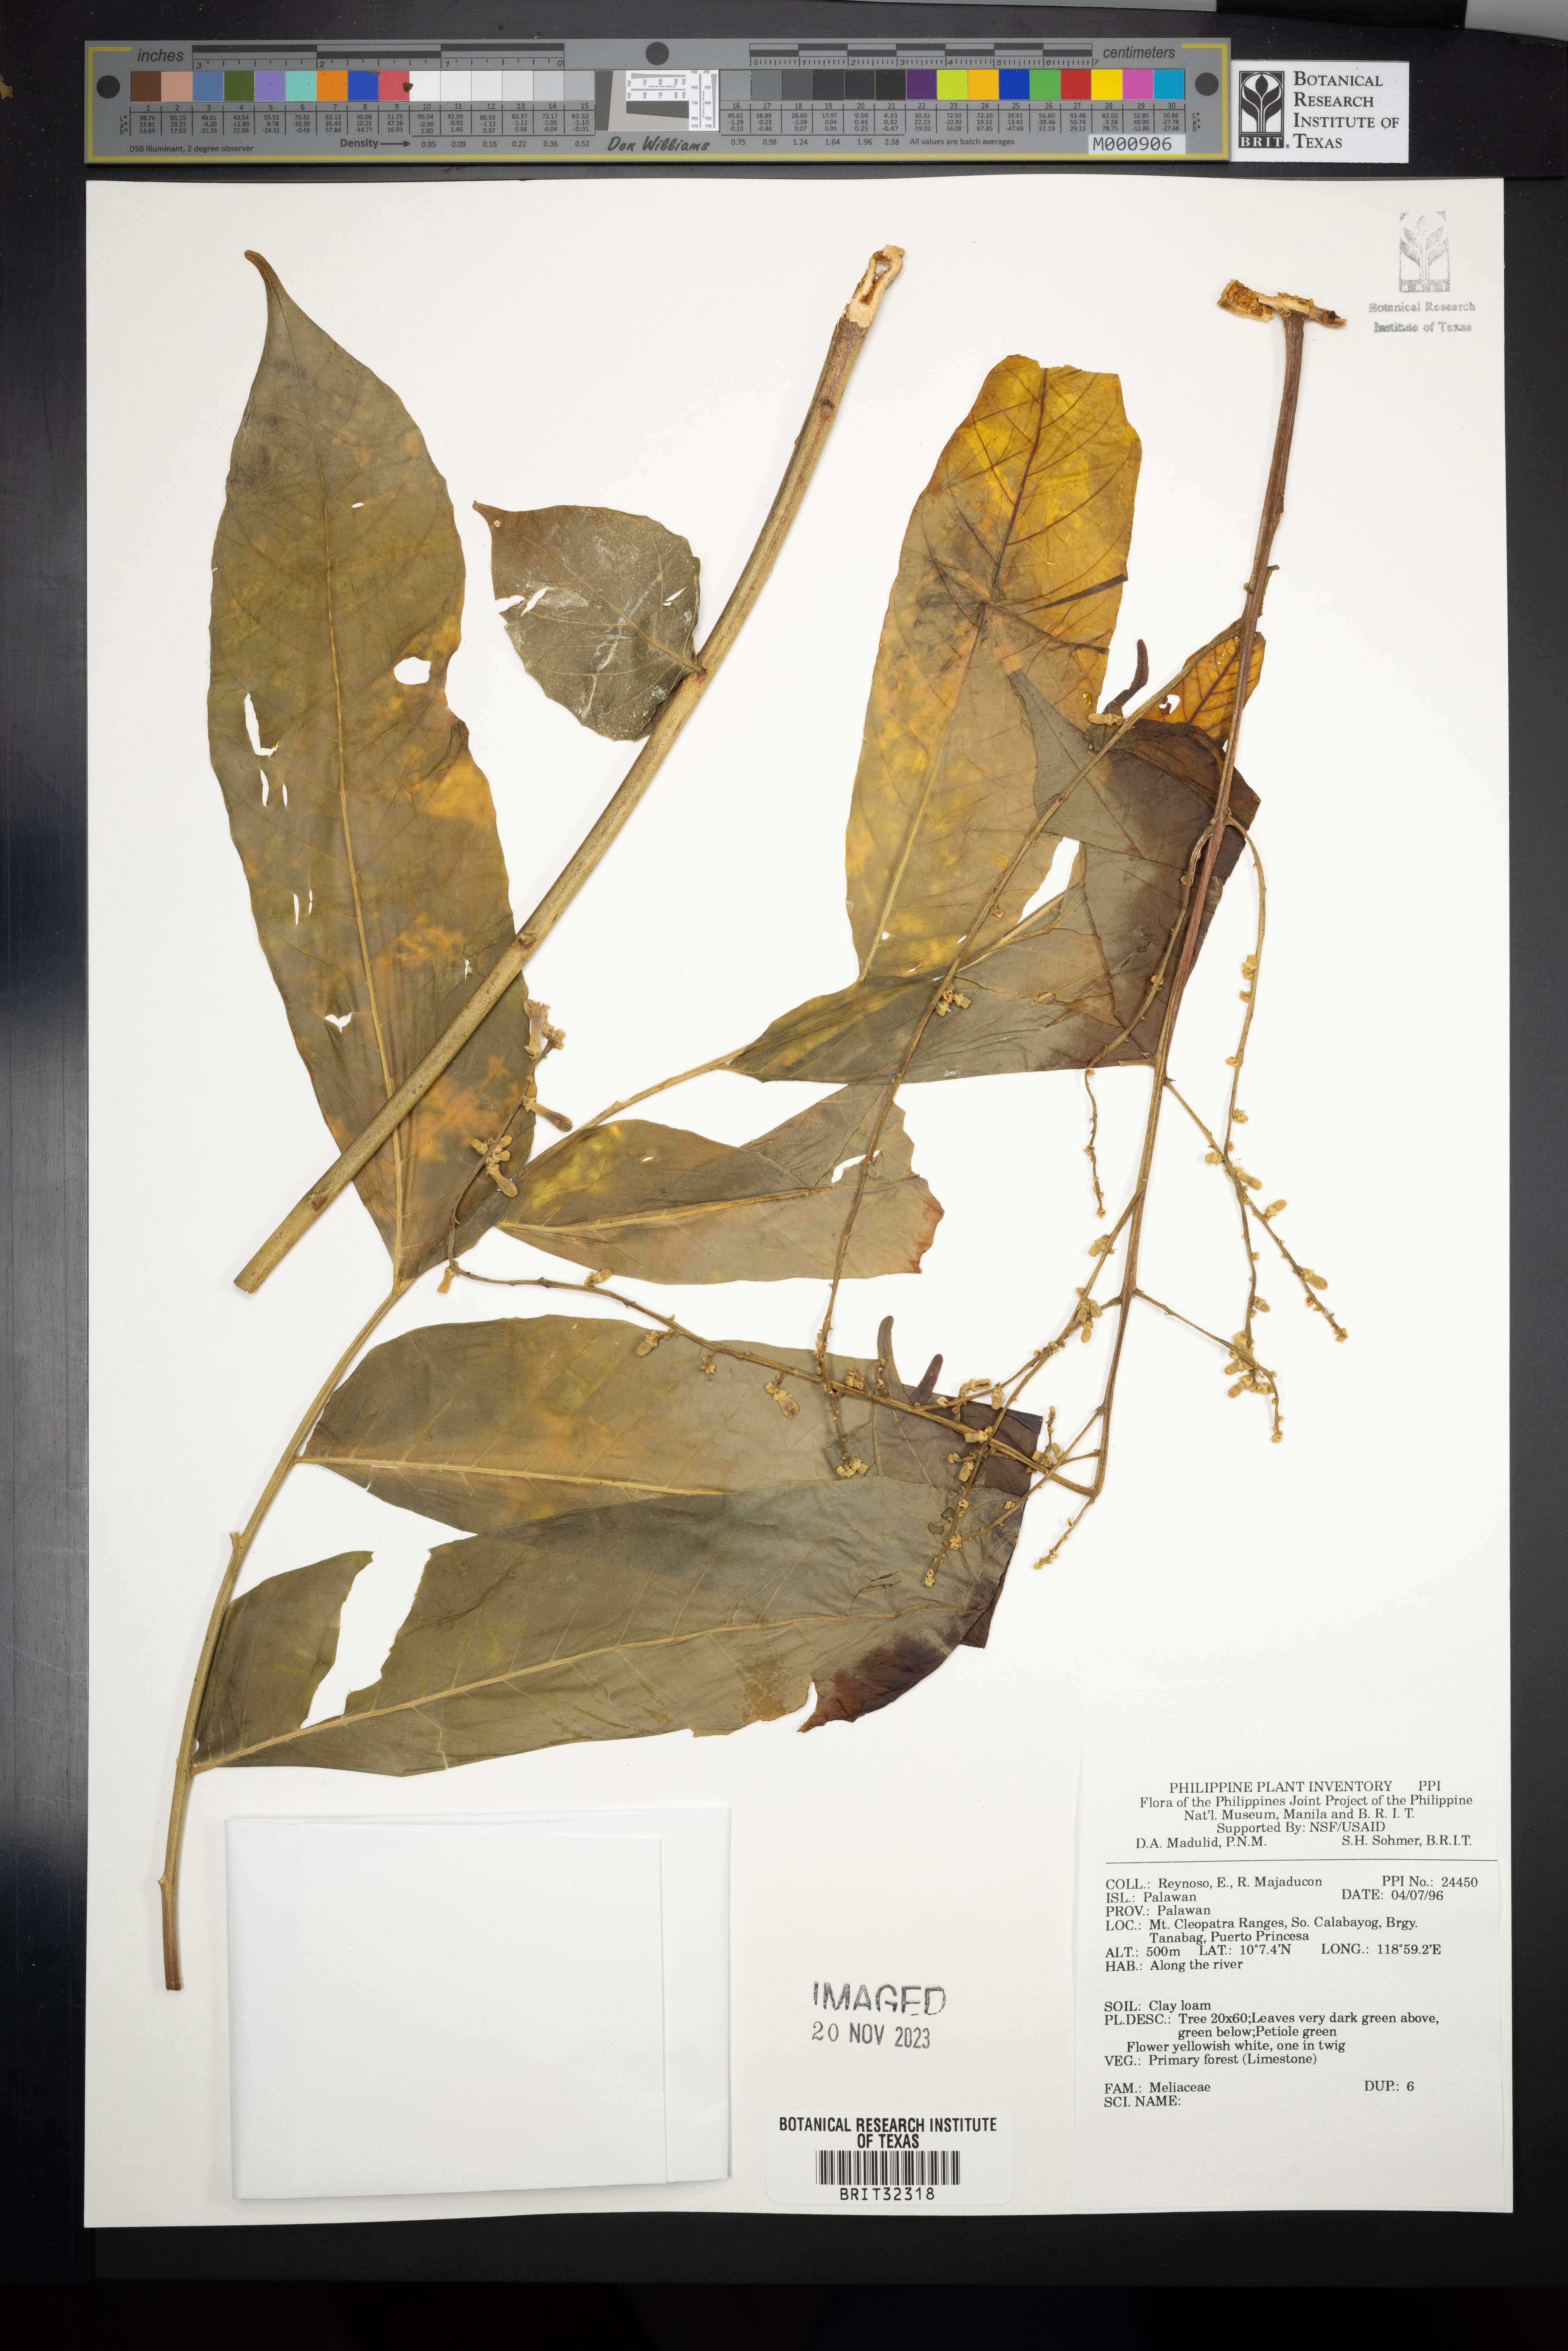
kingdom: Plantae
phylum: Tracheophyta
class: Magnoliopsida
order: Sapindales
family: Meliaceae
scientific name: Meliaceae
